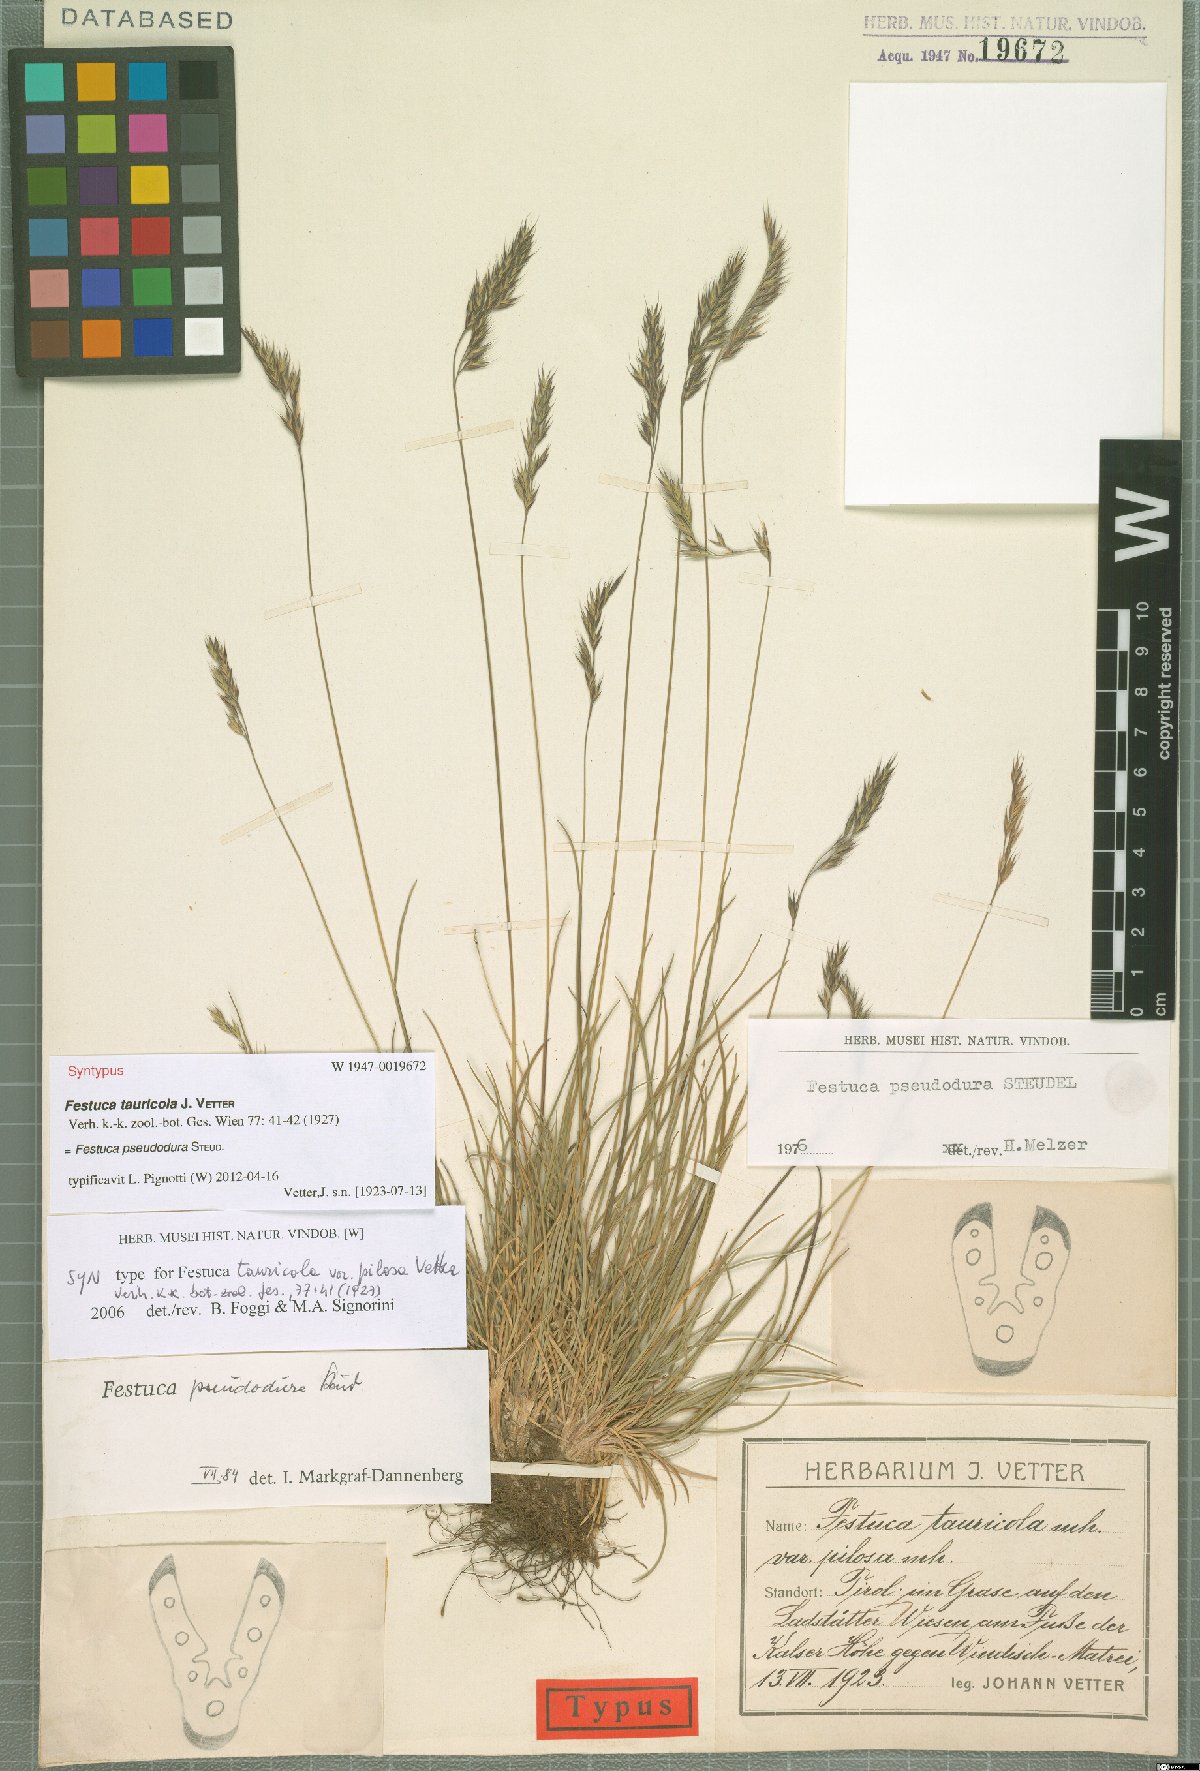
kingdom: Plantae
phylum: Tracheophyta
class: Liliopsida
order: Poales
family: Poaceae
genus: Festuca
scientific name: Festuca pseudodura
